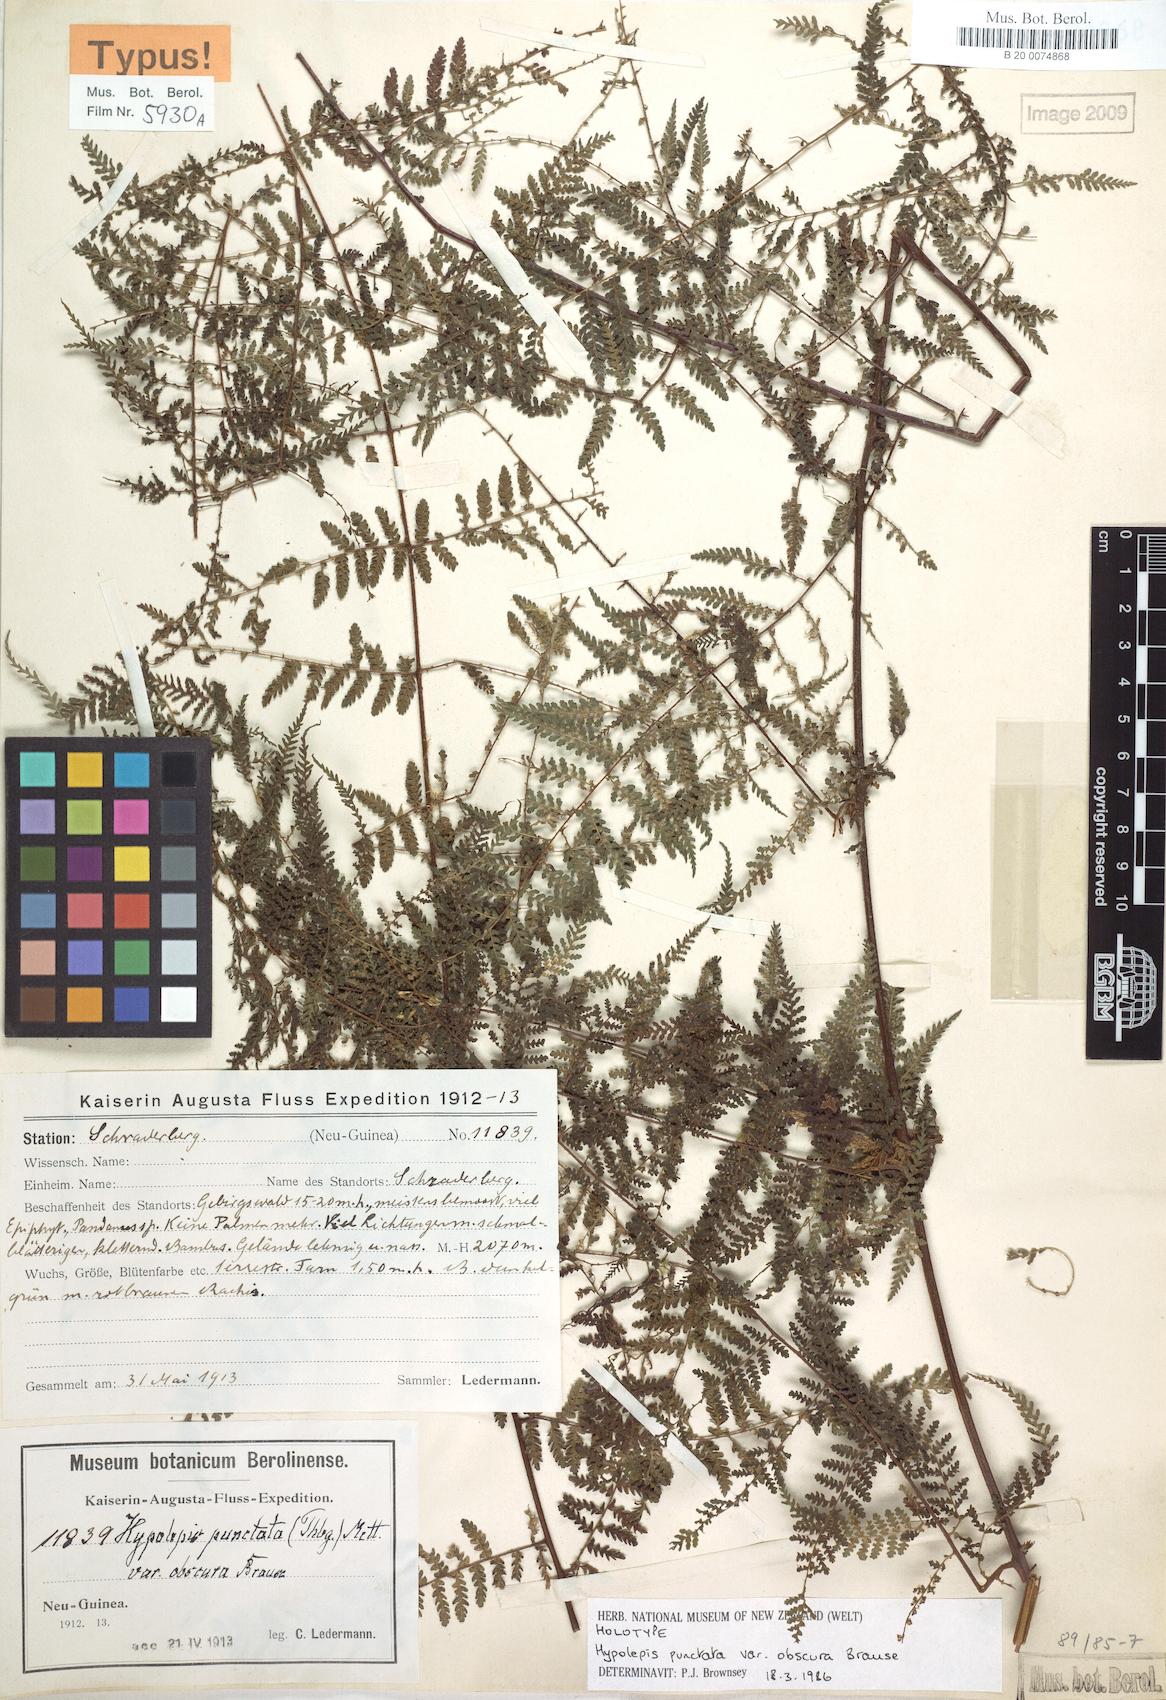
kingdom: Plantae
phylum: Tracheophyta
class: Polypodiopsida
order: Polypodiales
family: Dennstaedtiaceae
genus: Hypolepis
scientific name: Hypolepis bamleriana
